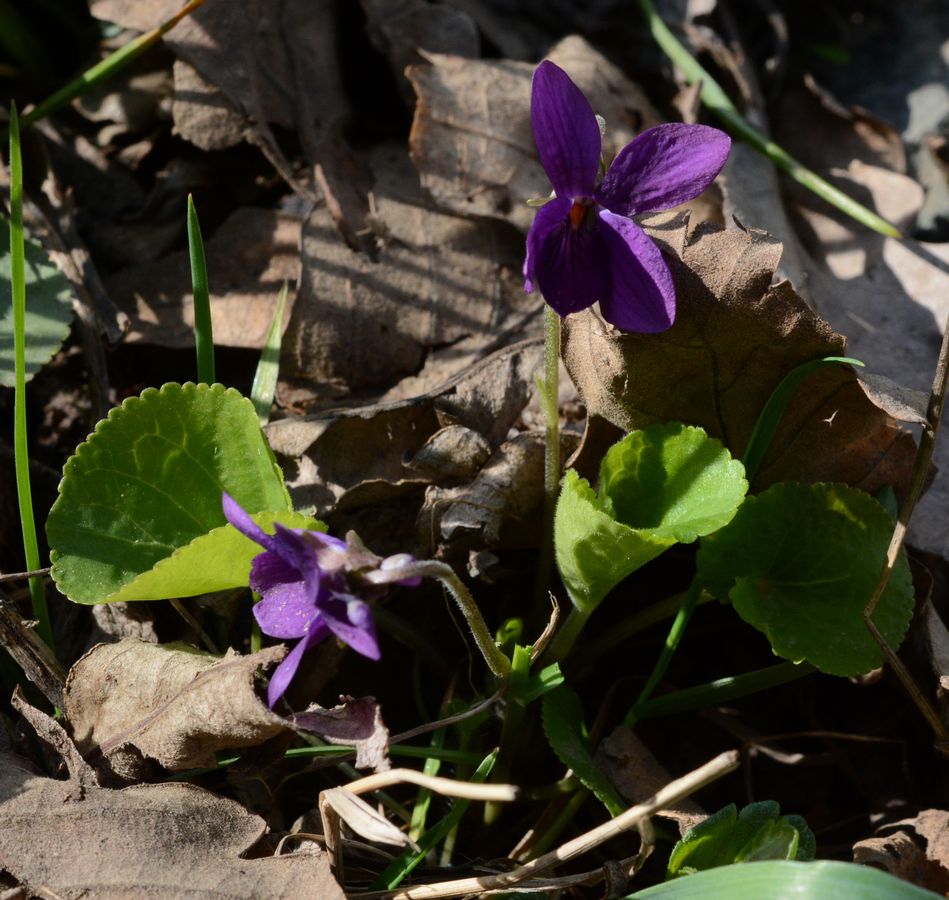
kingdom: Plantae
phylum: Tracheophyta
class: Magnoliopsida
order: Malpighiales
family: Violaceae
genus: Viola
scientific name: Viola odorata
